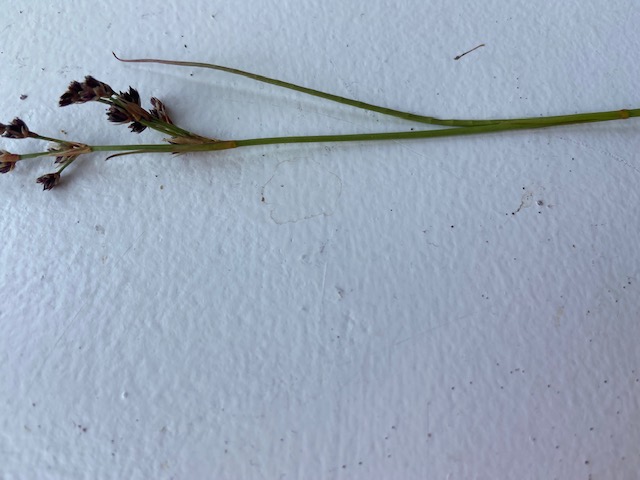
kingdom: Plantae
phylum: Tracheophyta
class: Liliopsida
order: Poales
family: Juncaceae
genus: Juncus
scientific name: Juncus articulatus
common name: Glanskapslet siv
